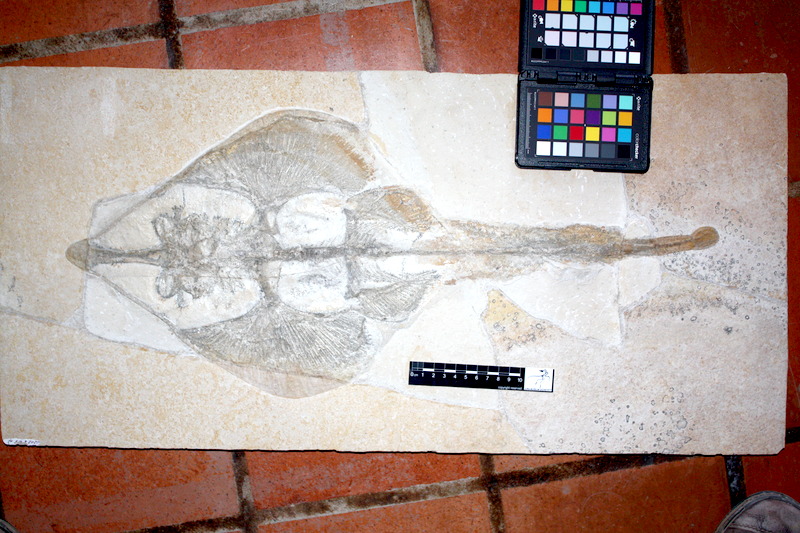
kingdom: Animalia
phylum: Chordata
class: Elasmobranchii
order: Rhinopristiformes
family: Rhinobatidae
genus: Asterodermus
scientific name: Asterodermus platypterus
